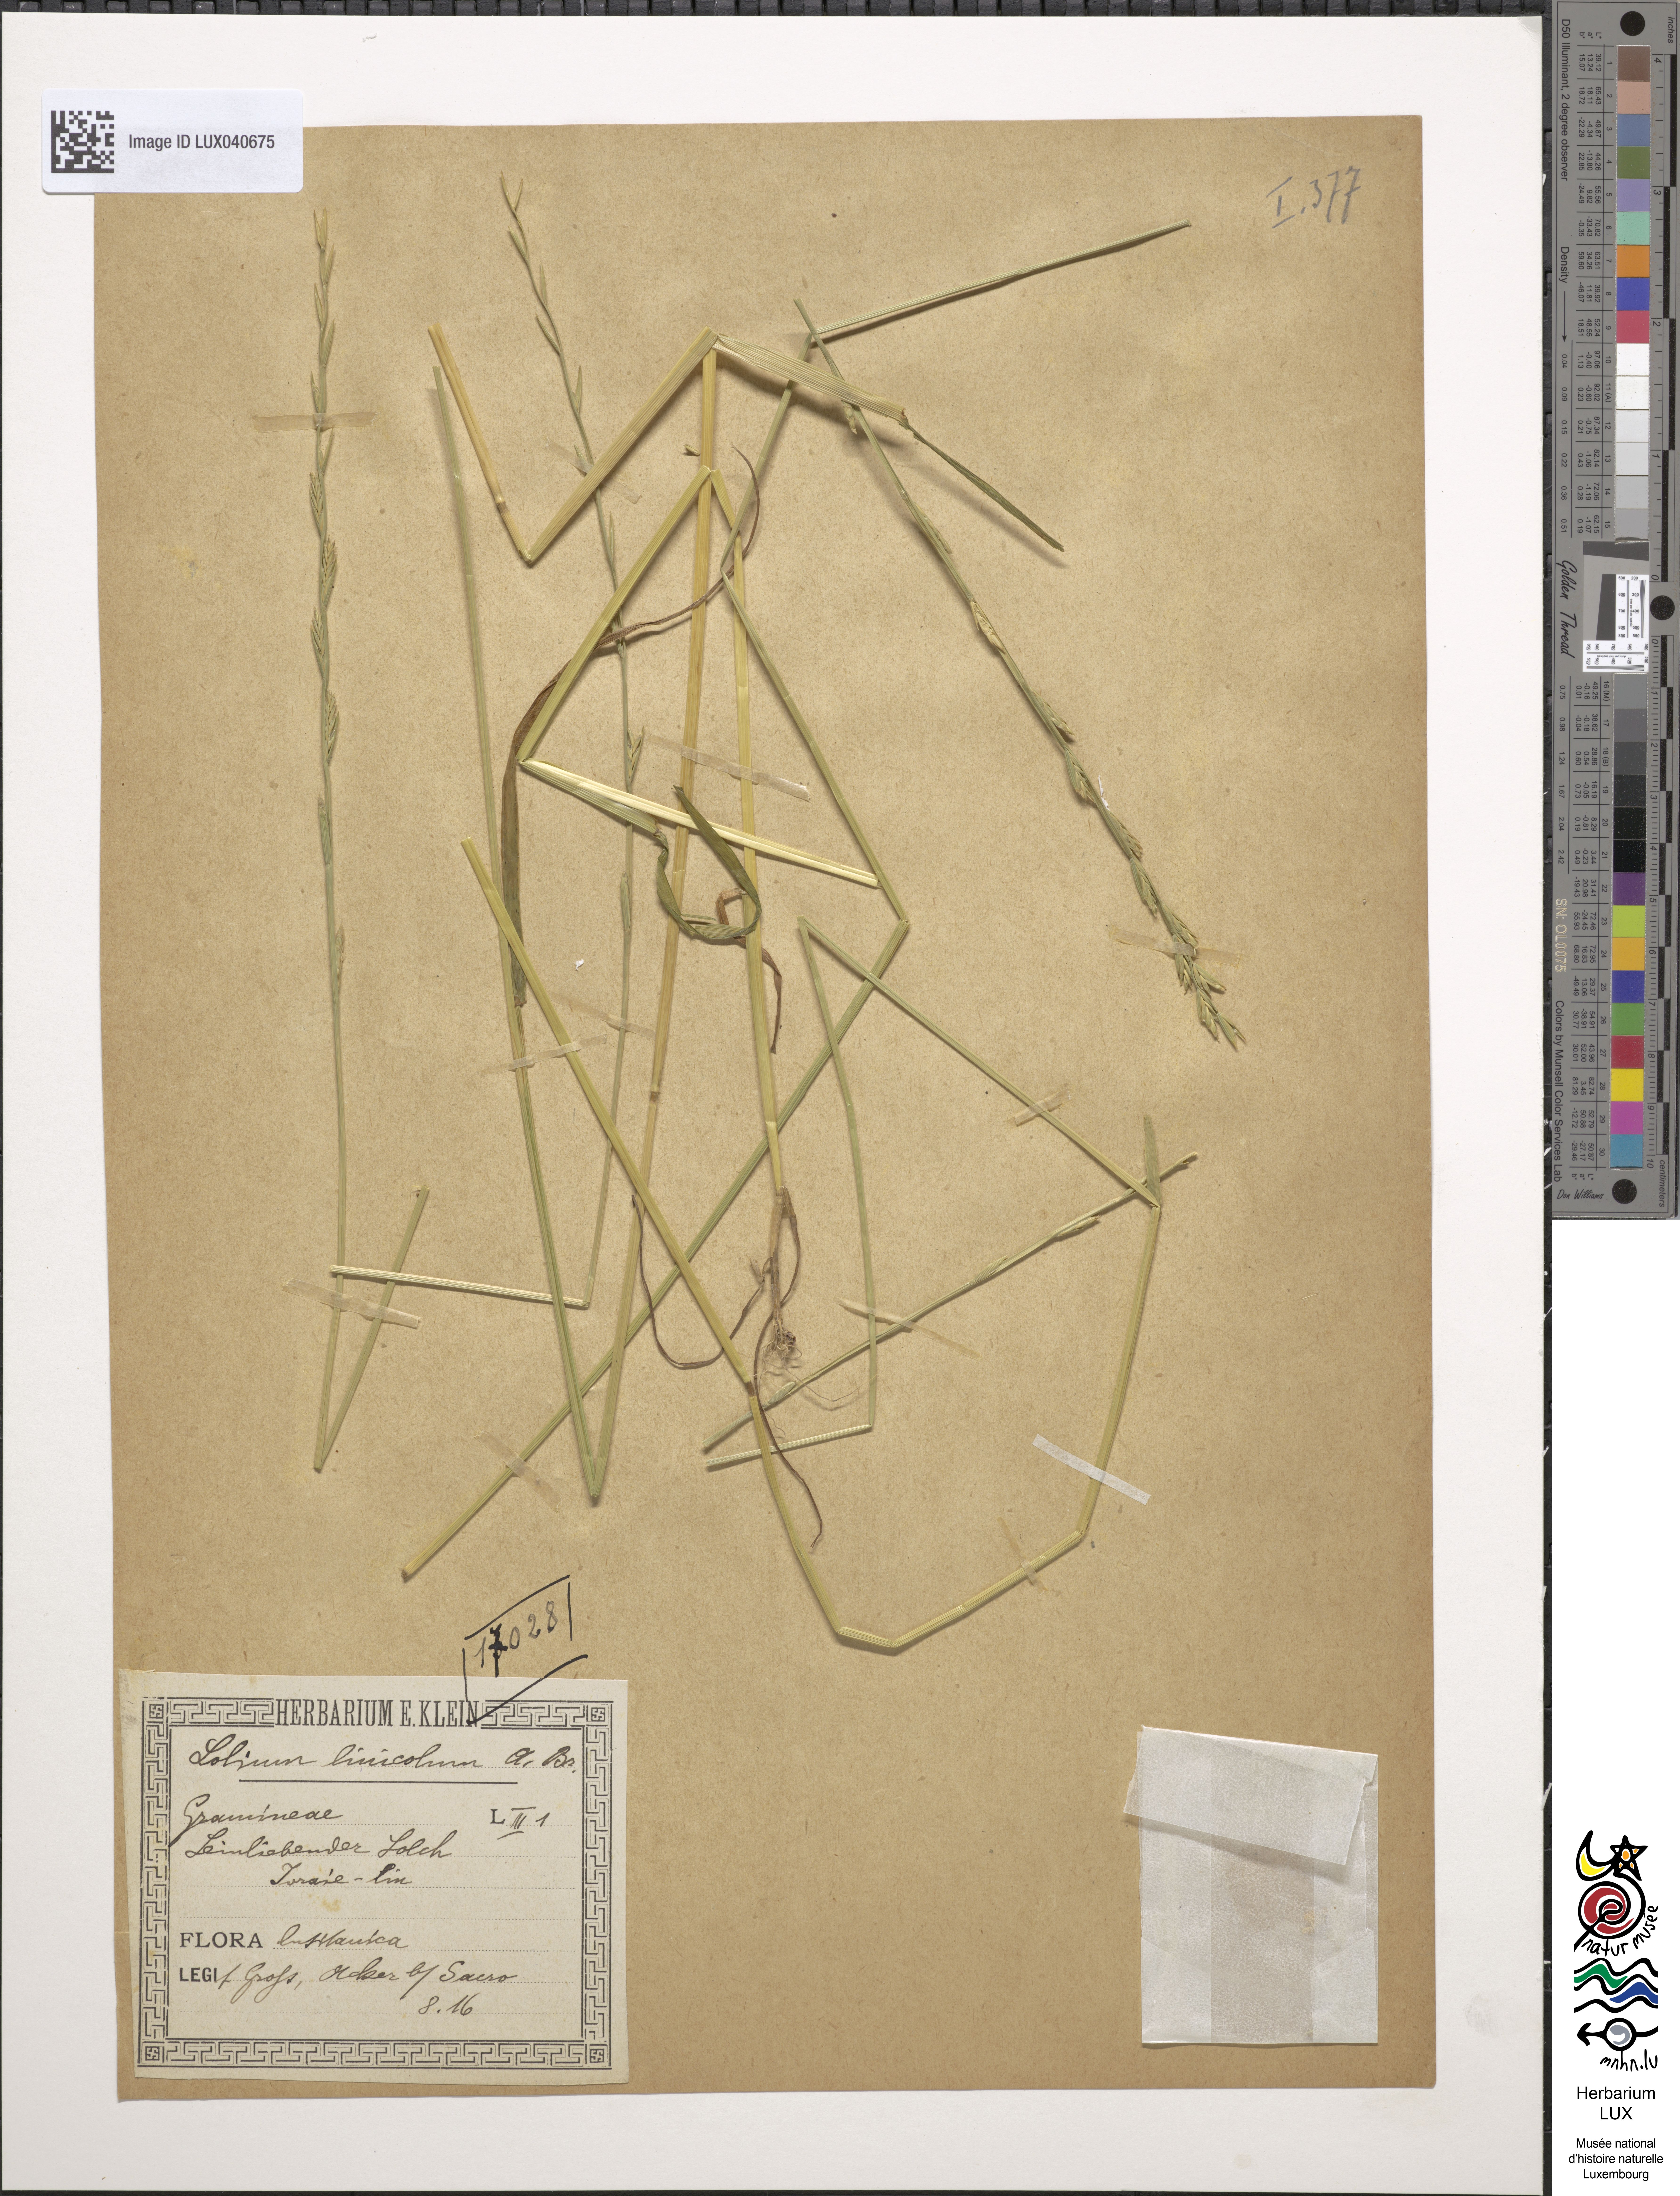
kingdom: Plantae
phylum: Tracheophyta
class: Liliopsida
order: Poales
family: Poaceae
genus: Lolium
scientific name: Lolium remotum
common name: Flaxfield rye-grass
